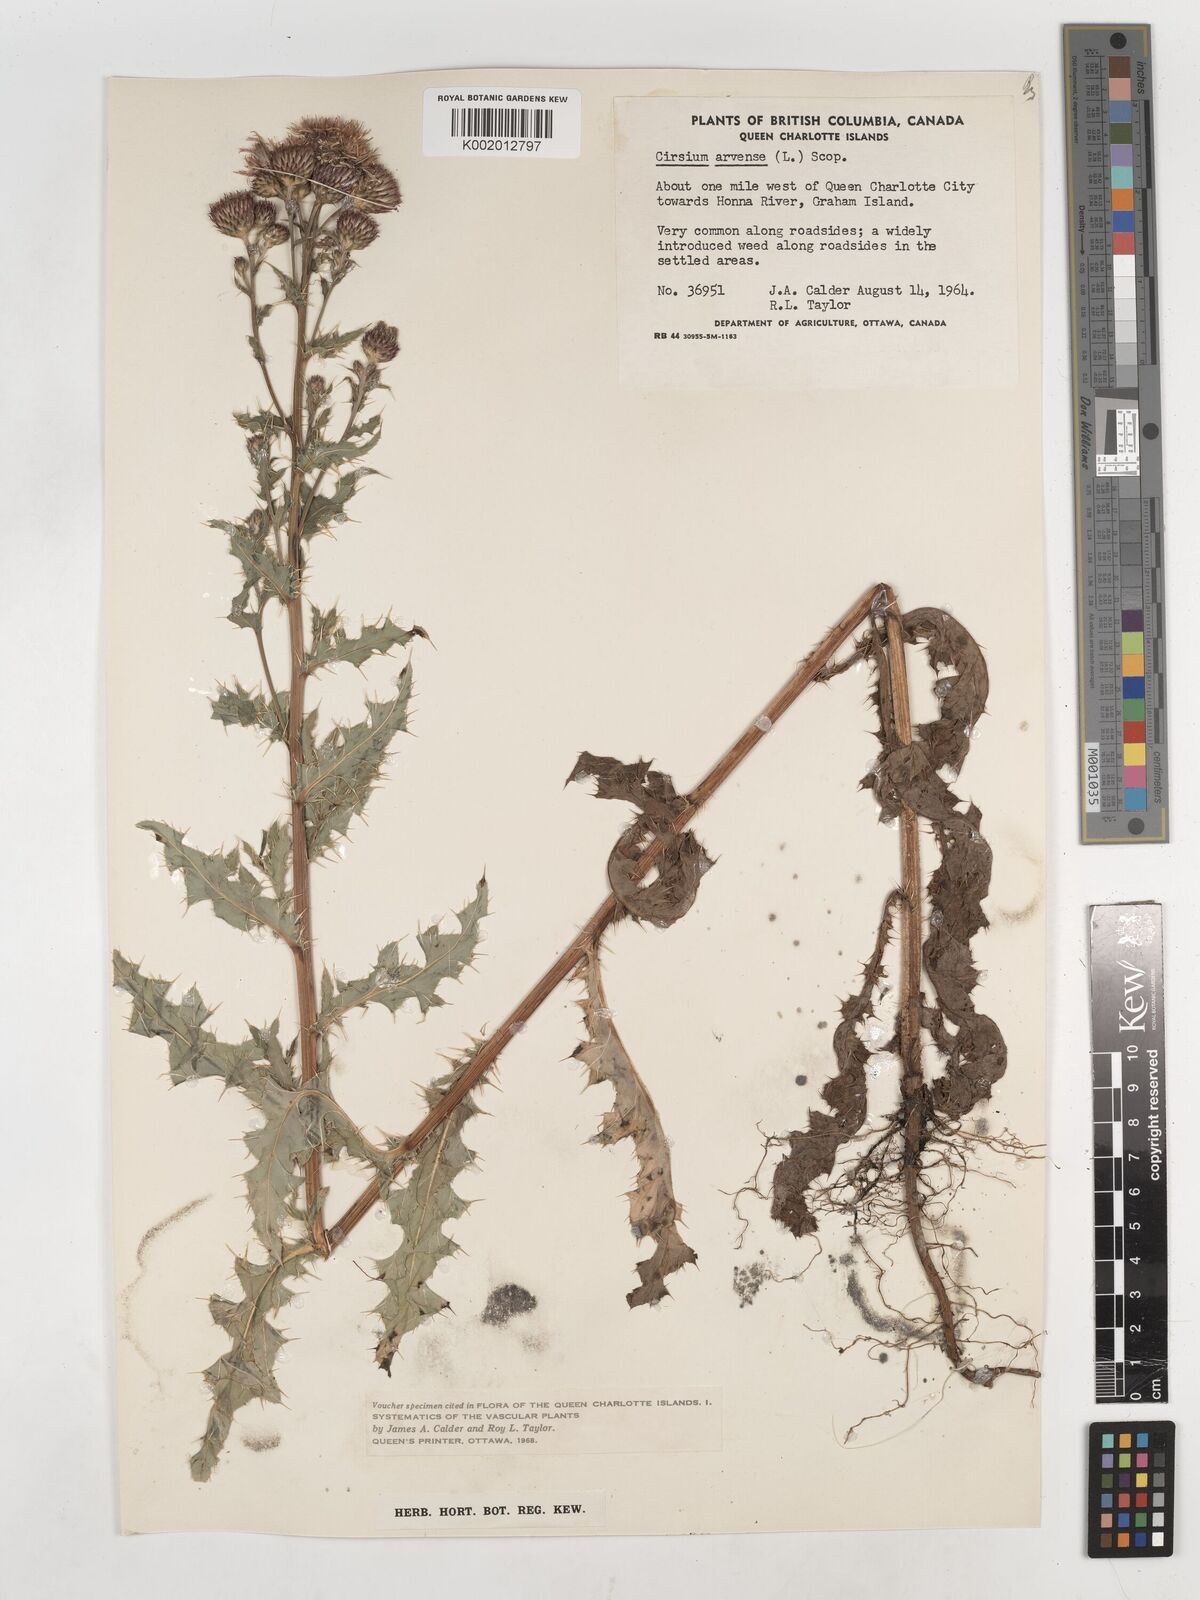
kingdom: Plantae
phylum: Tracheophyta
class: Magnoliopsida
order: Asterales
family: Asteraceae
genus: Cirsium
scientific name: Cirsium arvense
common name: Creeping thistle
